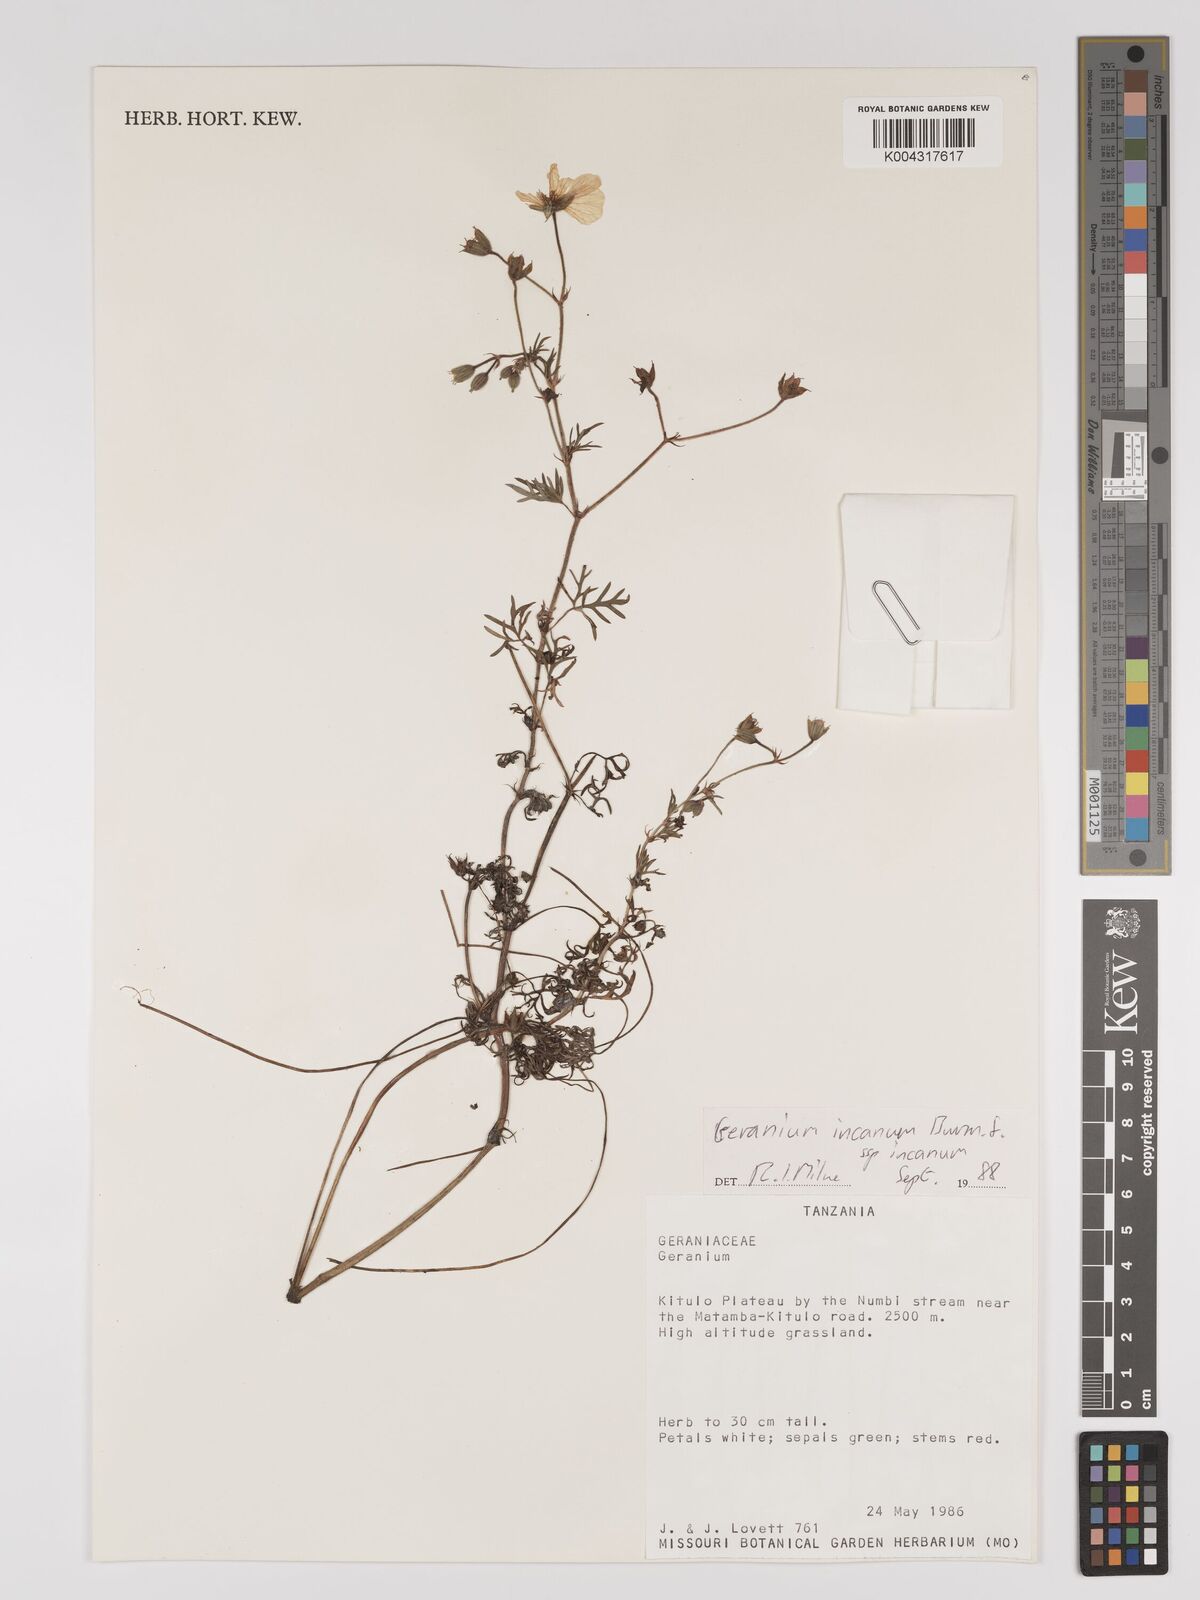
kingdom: Plantae
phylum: Tracheophyta
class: Magnoliopsida
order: Geraniales
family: Geraniaceae
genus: Geranium
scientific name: Geranium incanum
